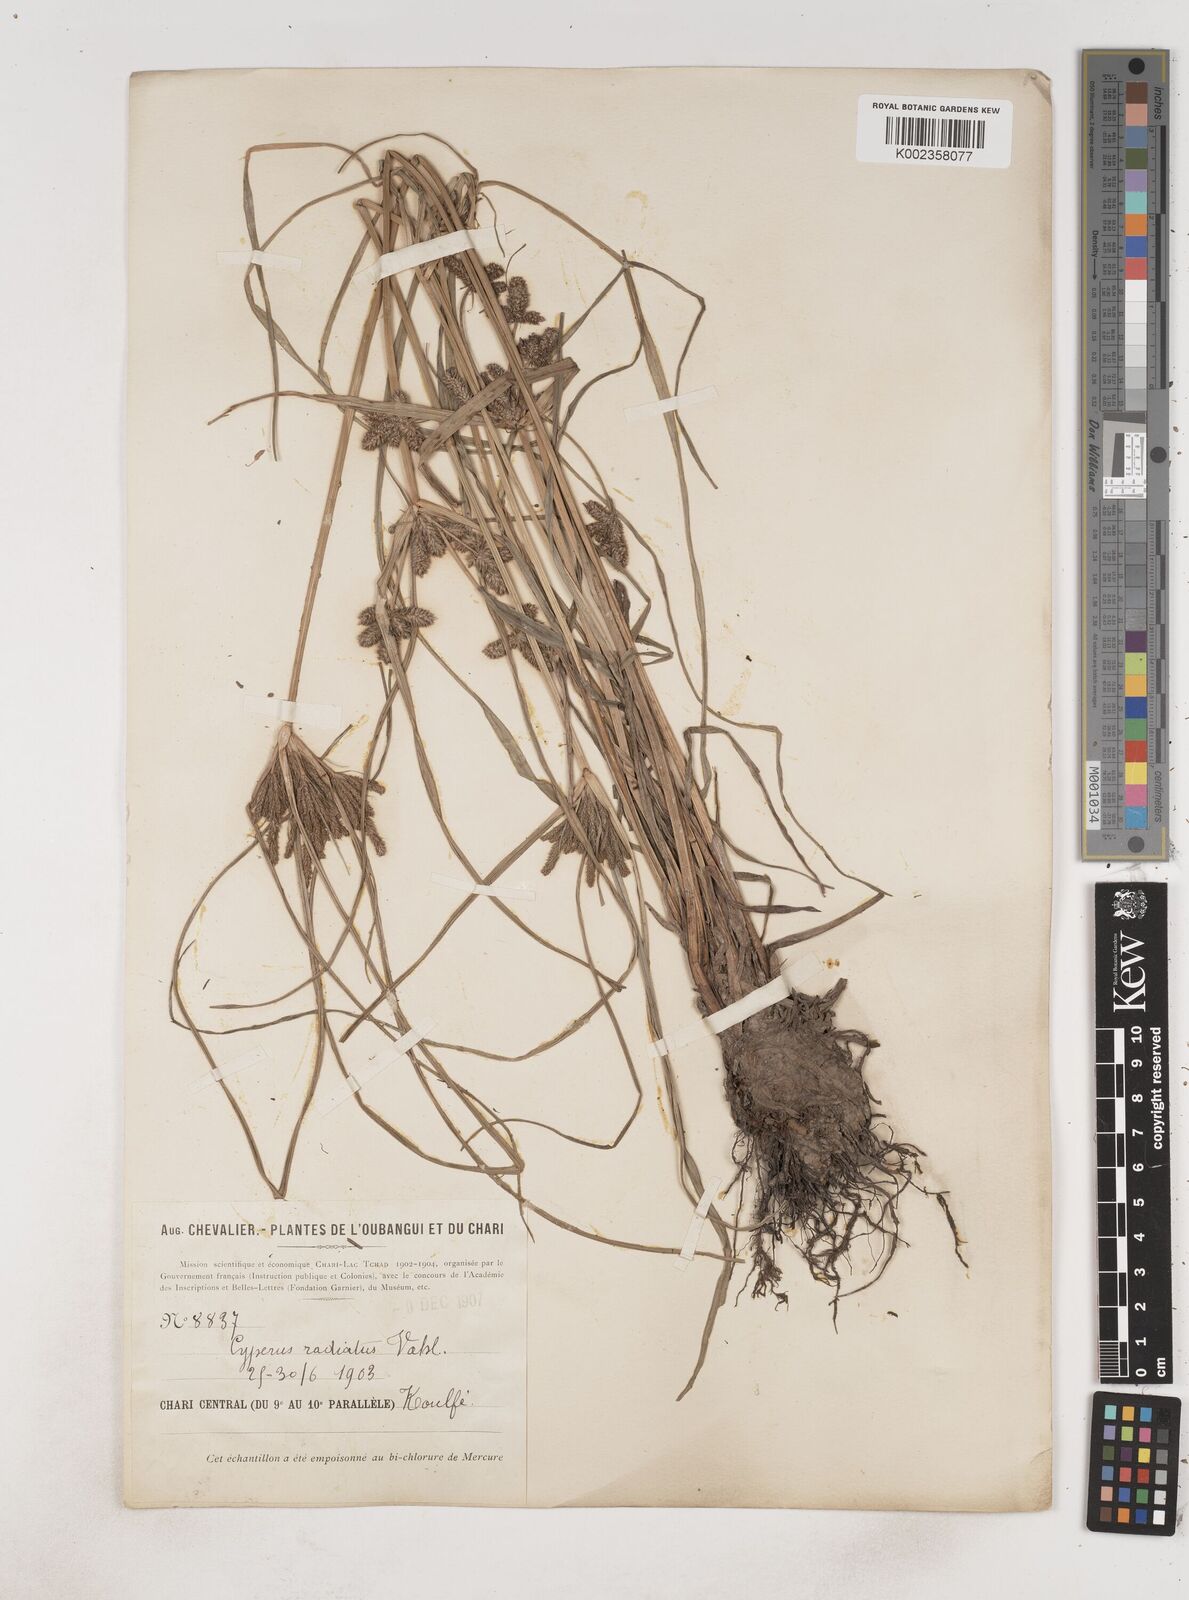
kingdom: Plantae
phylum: Tracheophyta
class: Liliopsida
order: Poales
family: Cyperaceae
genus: Cyperus
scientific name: Cyperus imbricatus
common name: Shingle flatsedge
